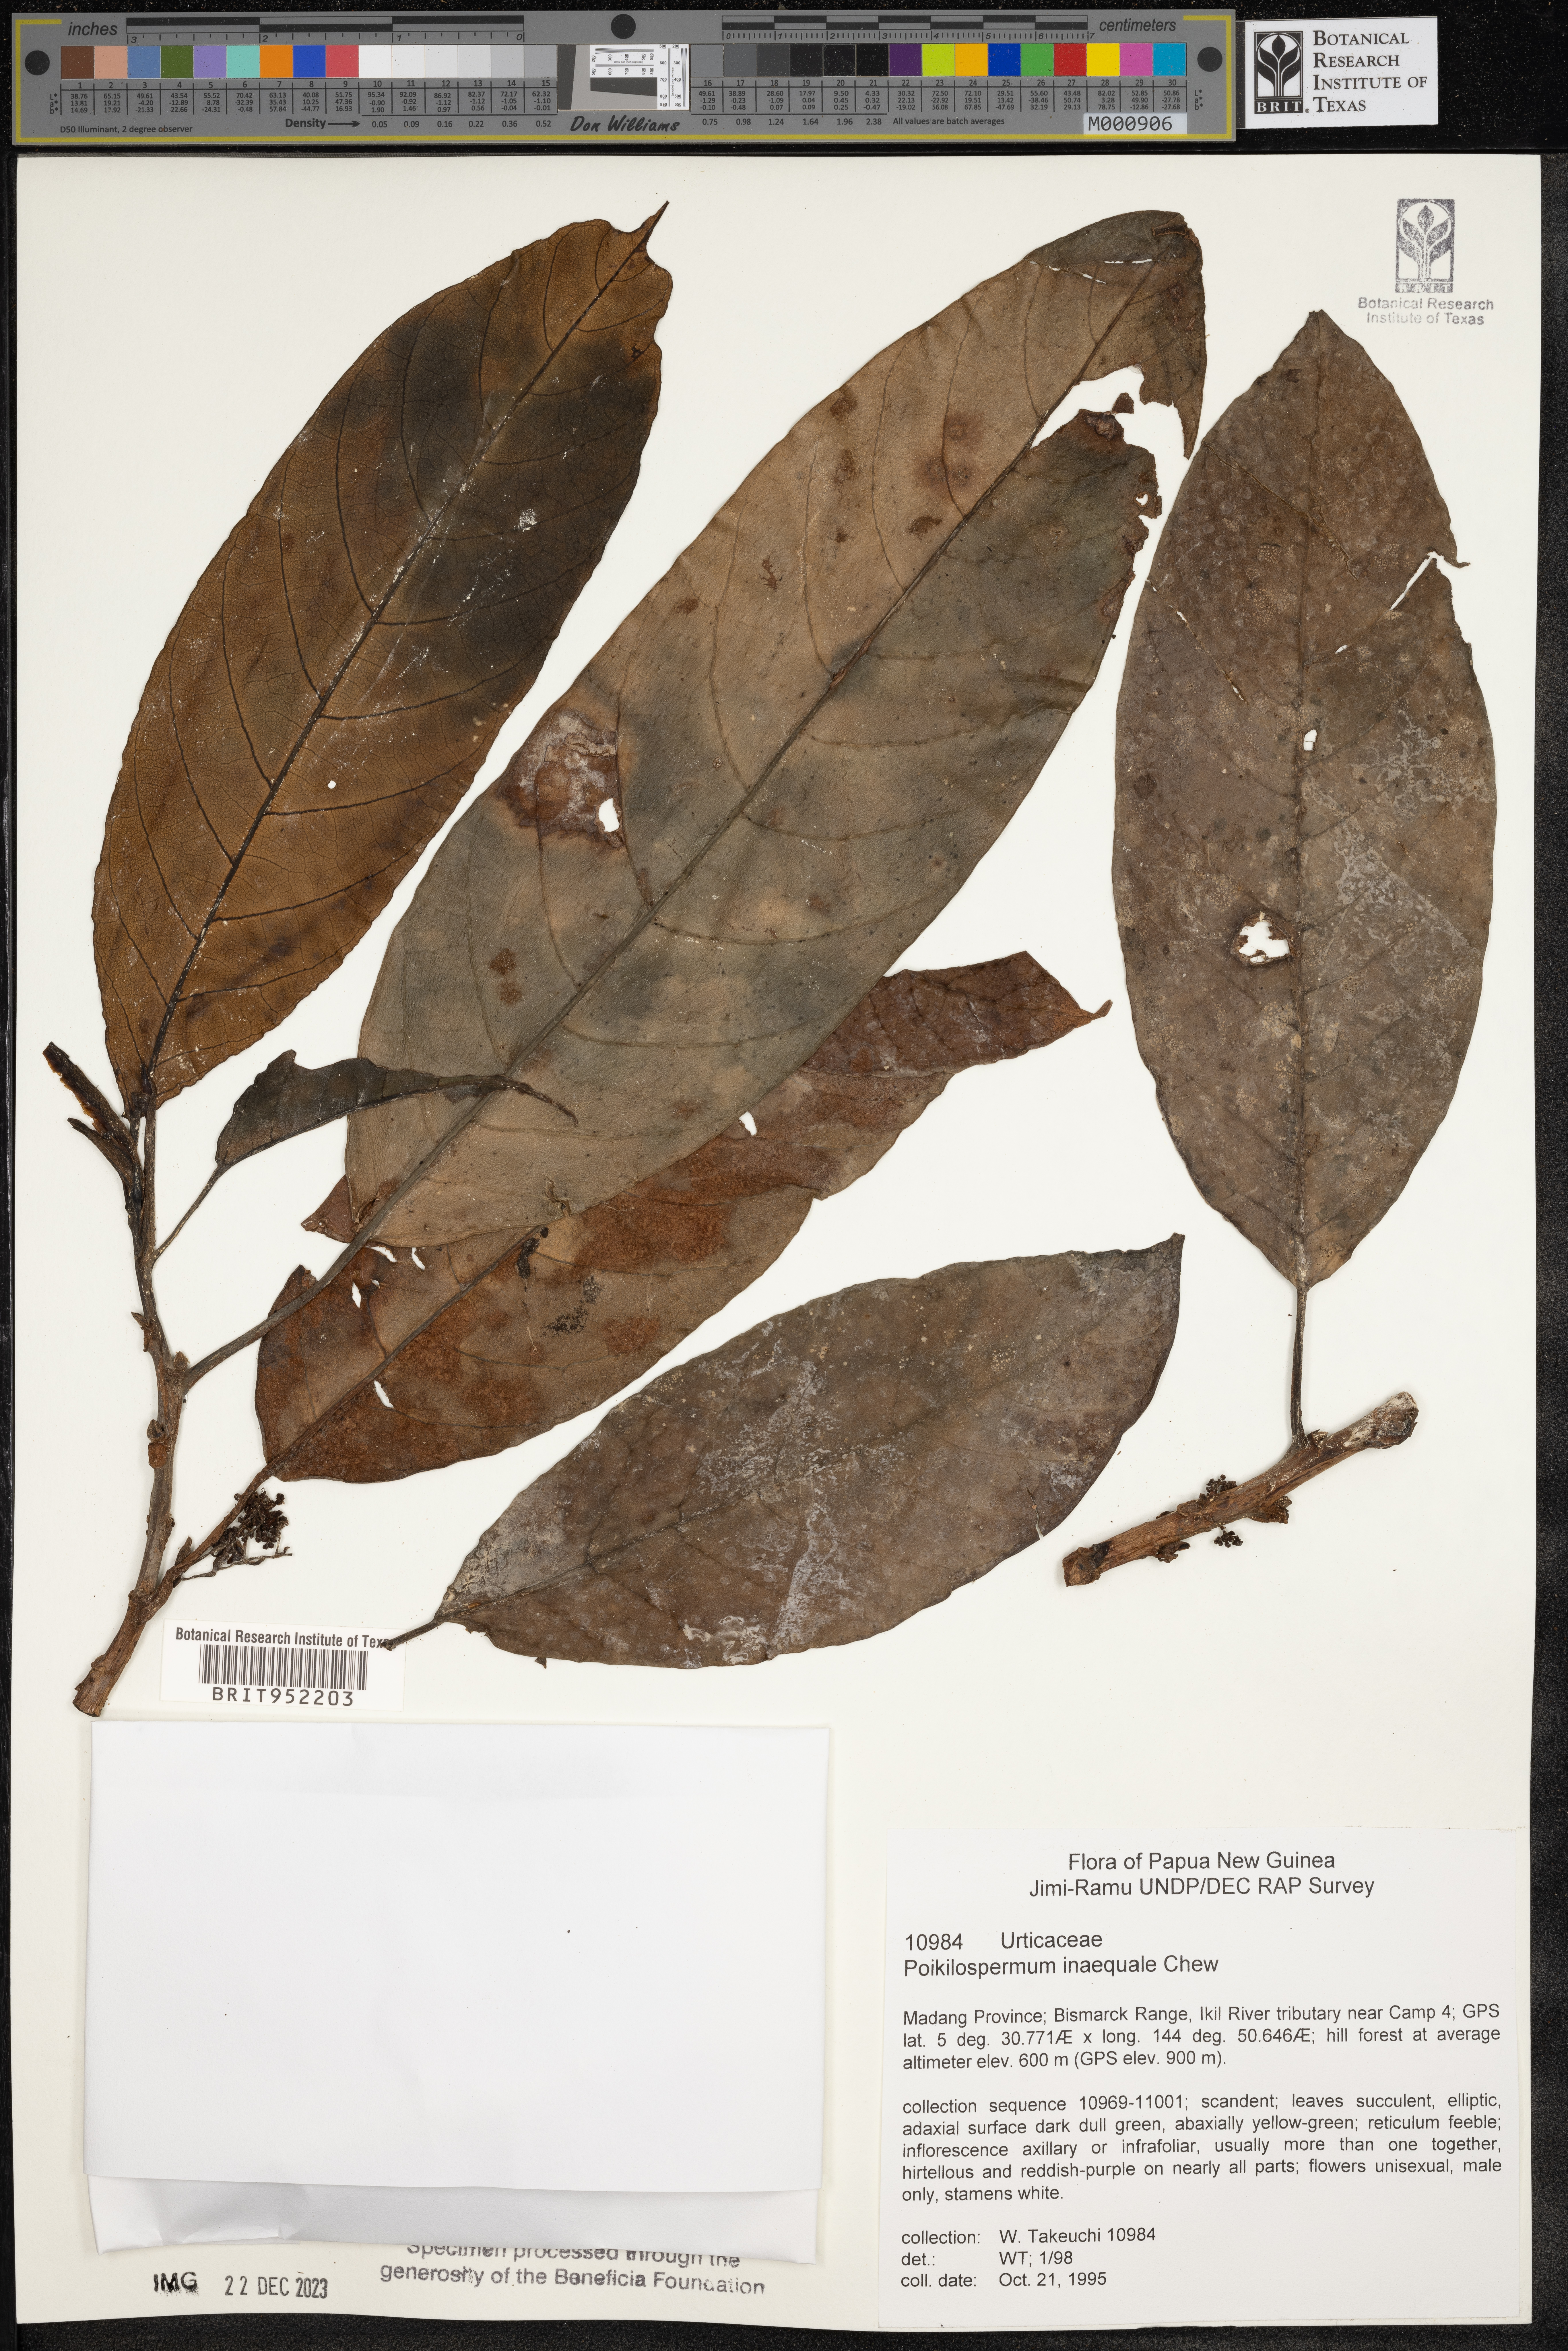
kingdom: Plantae
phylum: Tracheophyta
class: Magnoliopsida
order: Rosales
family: Urticaceae
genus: Poikilospermum
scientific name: Poikilospermum
